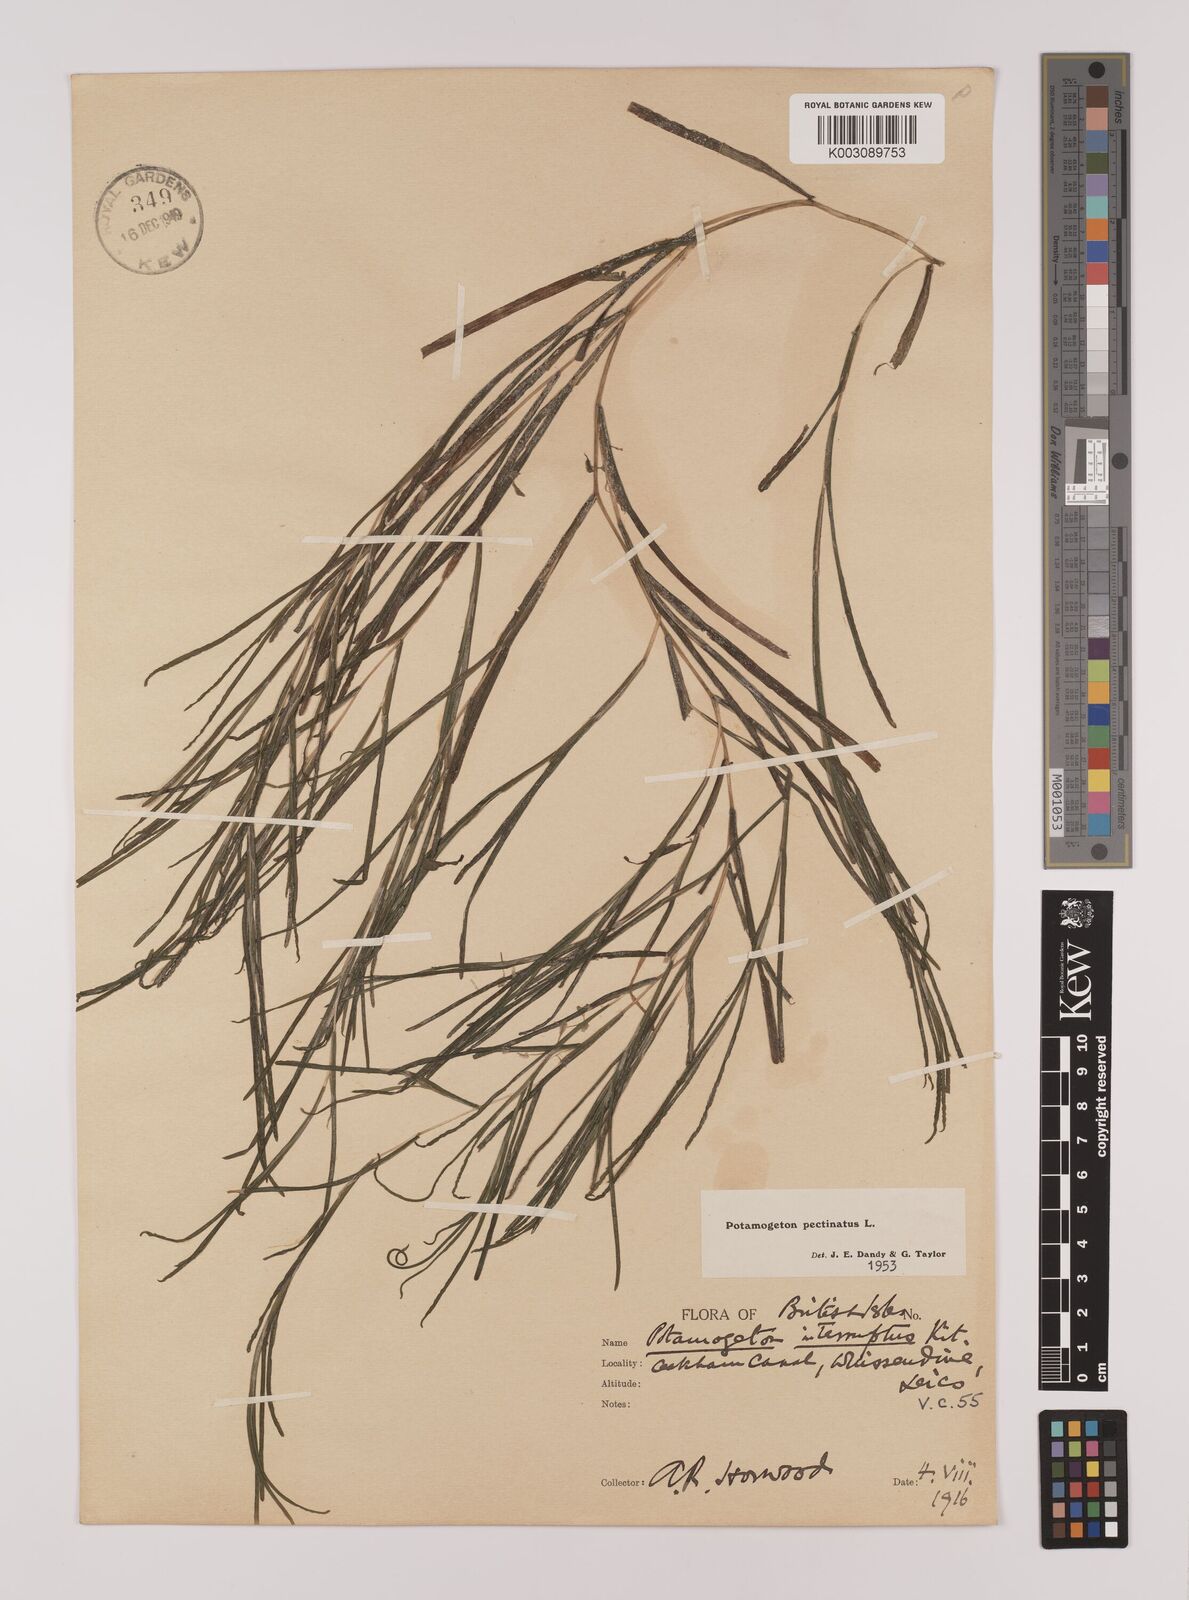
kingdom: Plantae
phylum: Tracheophyta
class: Liliopsida
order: Alismatales
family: Potamogetonaceae
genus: Stuckenia
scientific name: Stuckenia pectinata
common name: Sago pondweed
